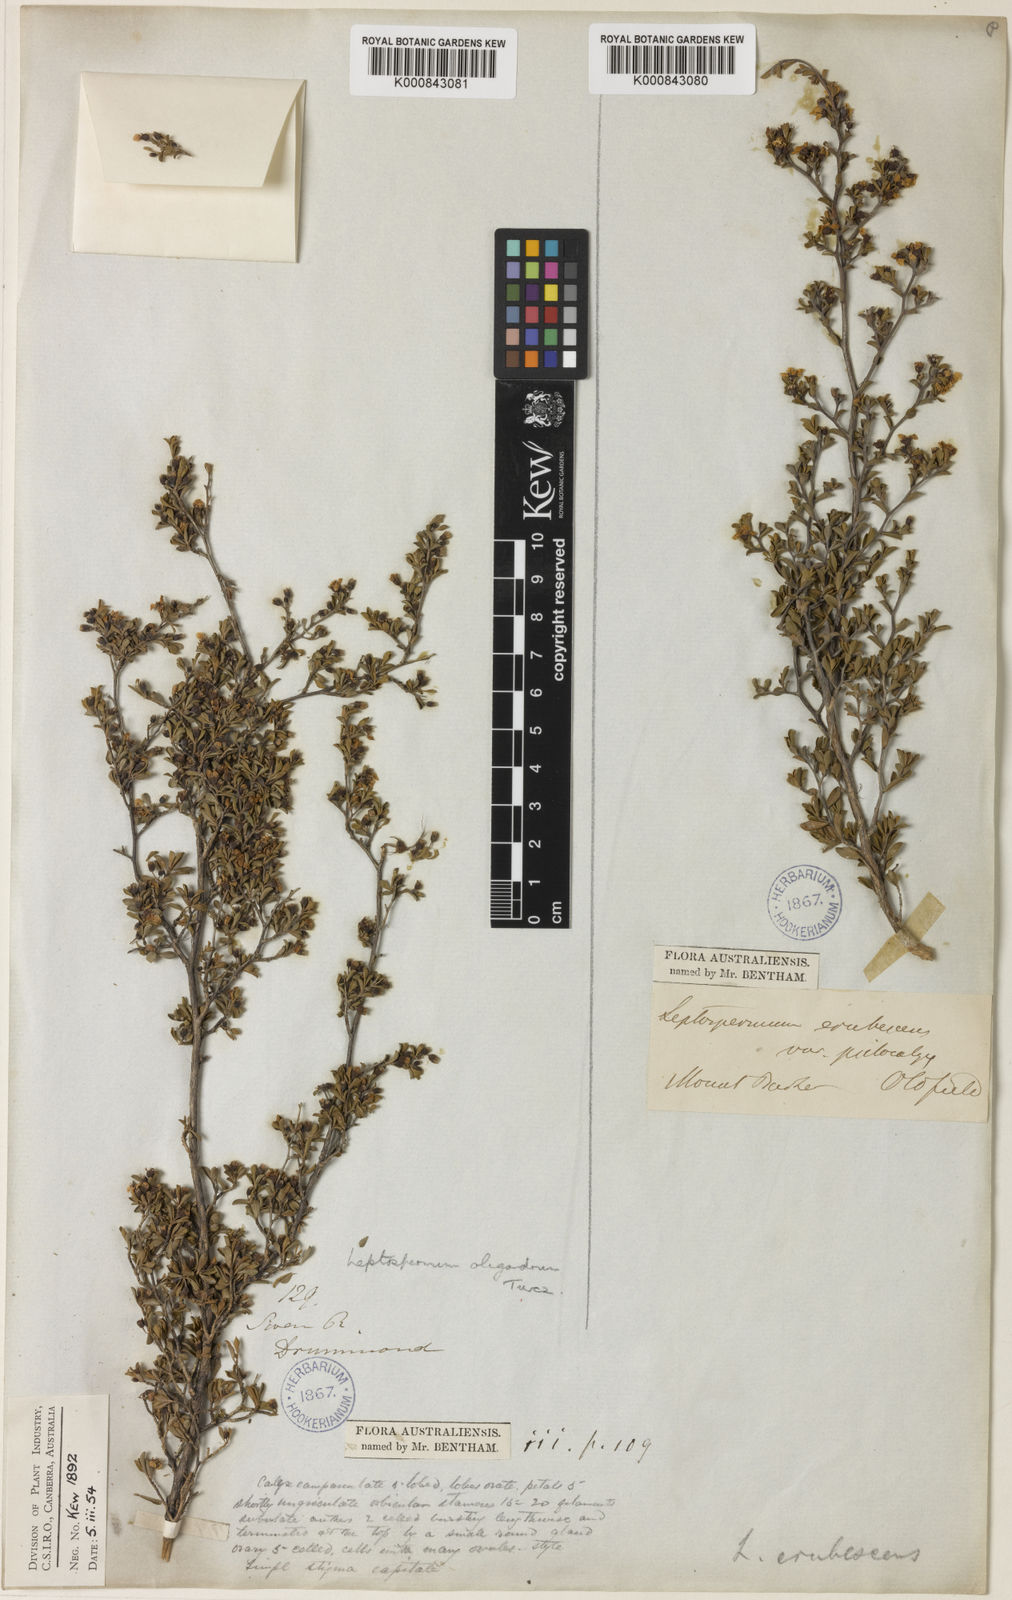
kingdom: Plantae
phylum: Tracheophyta
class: Magnoliopsida
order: Myrtales
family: Myrtaceae
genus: Leptospermum
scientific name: Leptospermum oligandrum
